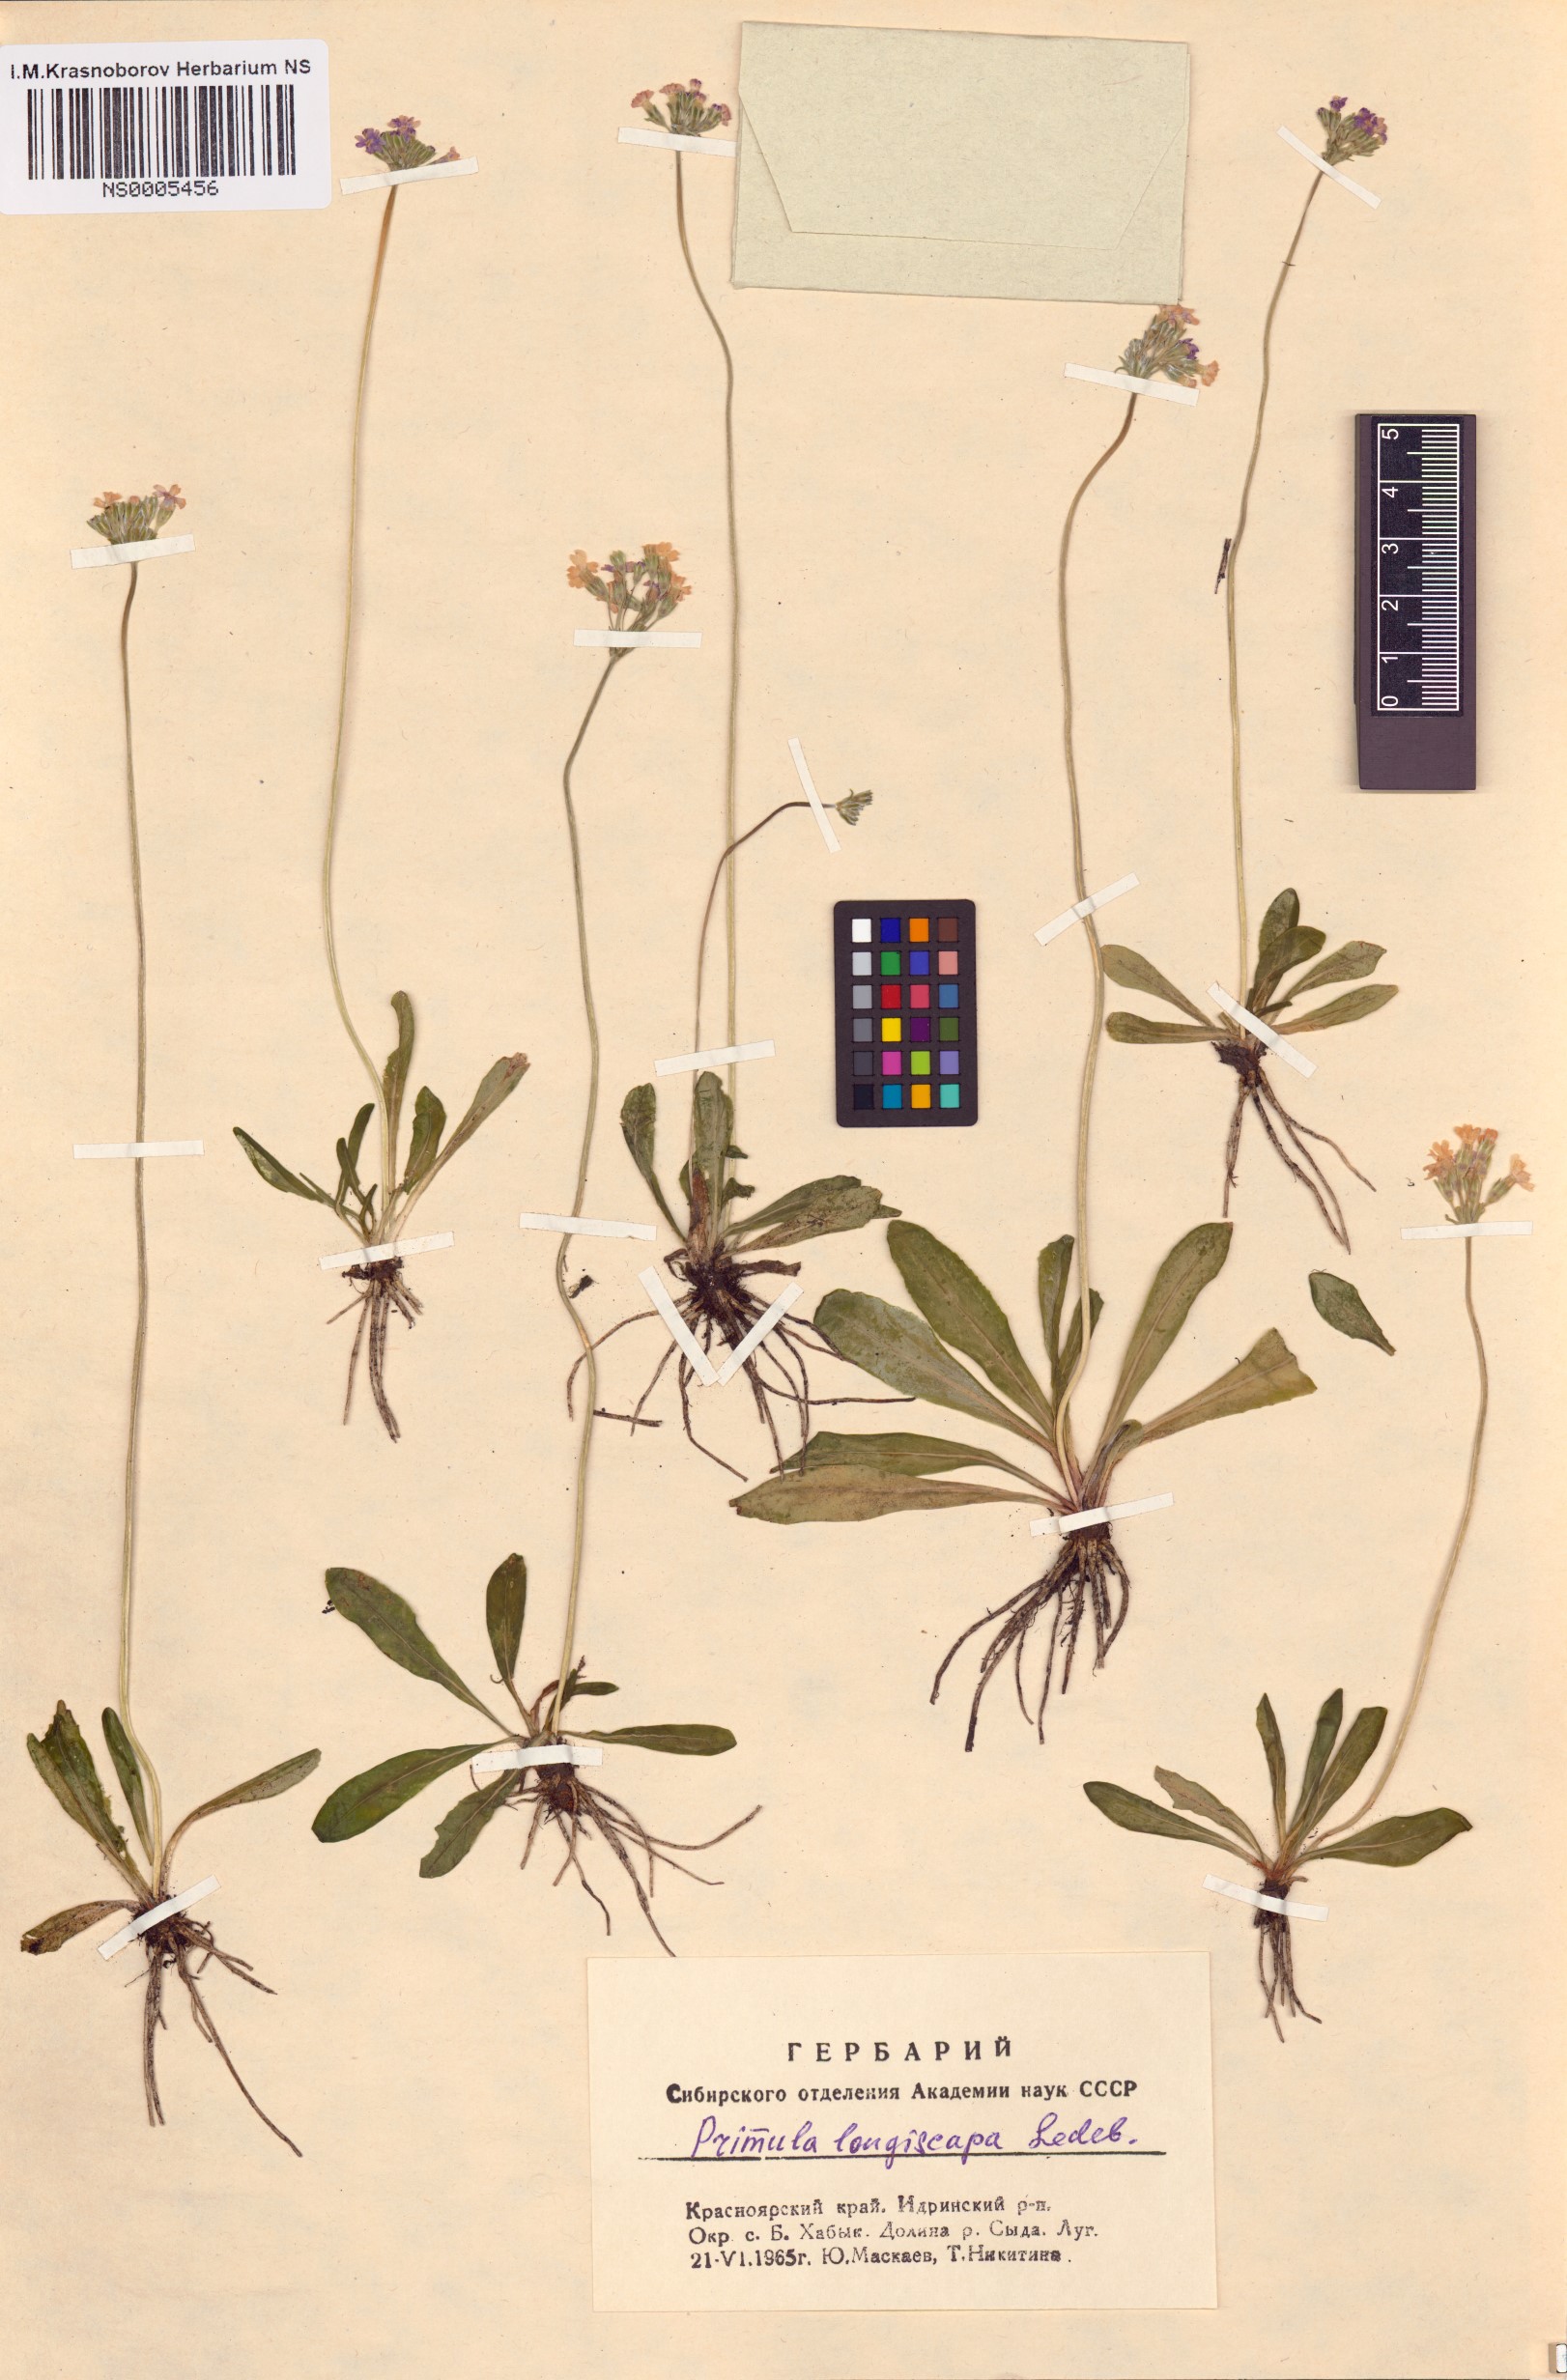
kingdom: Plantae
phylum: Tracheophyta
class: Magnoliopsida
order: Ericales
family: Primulaceae
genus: Primula
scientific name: Primula longiscapa
